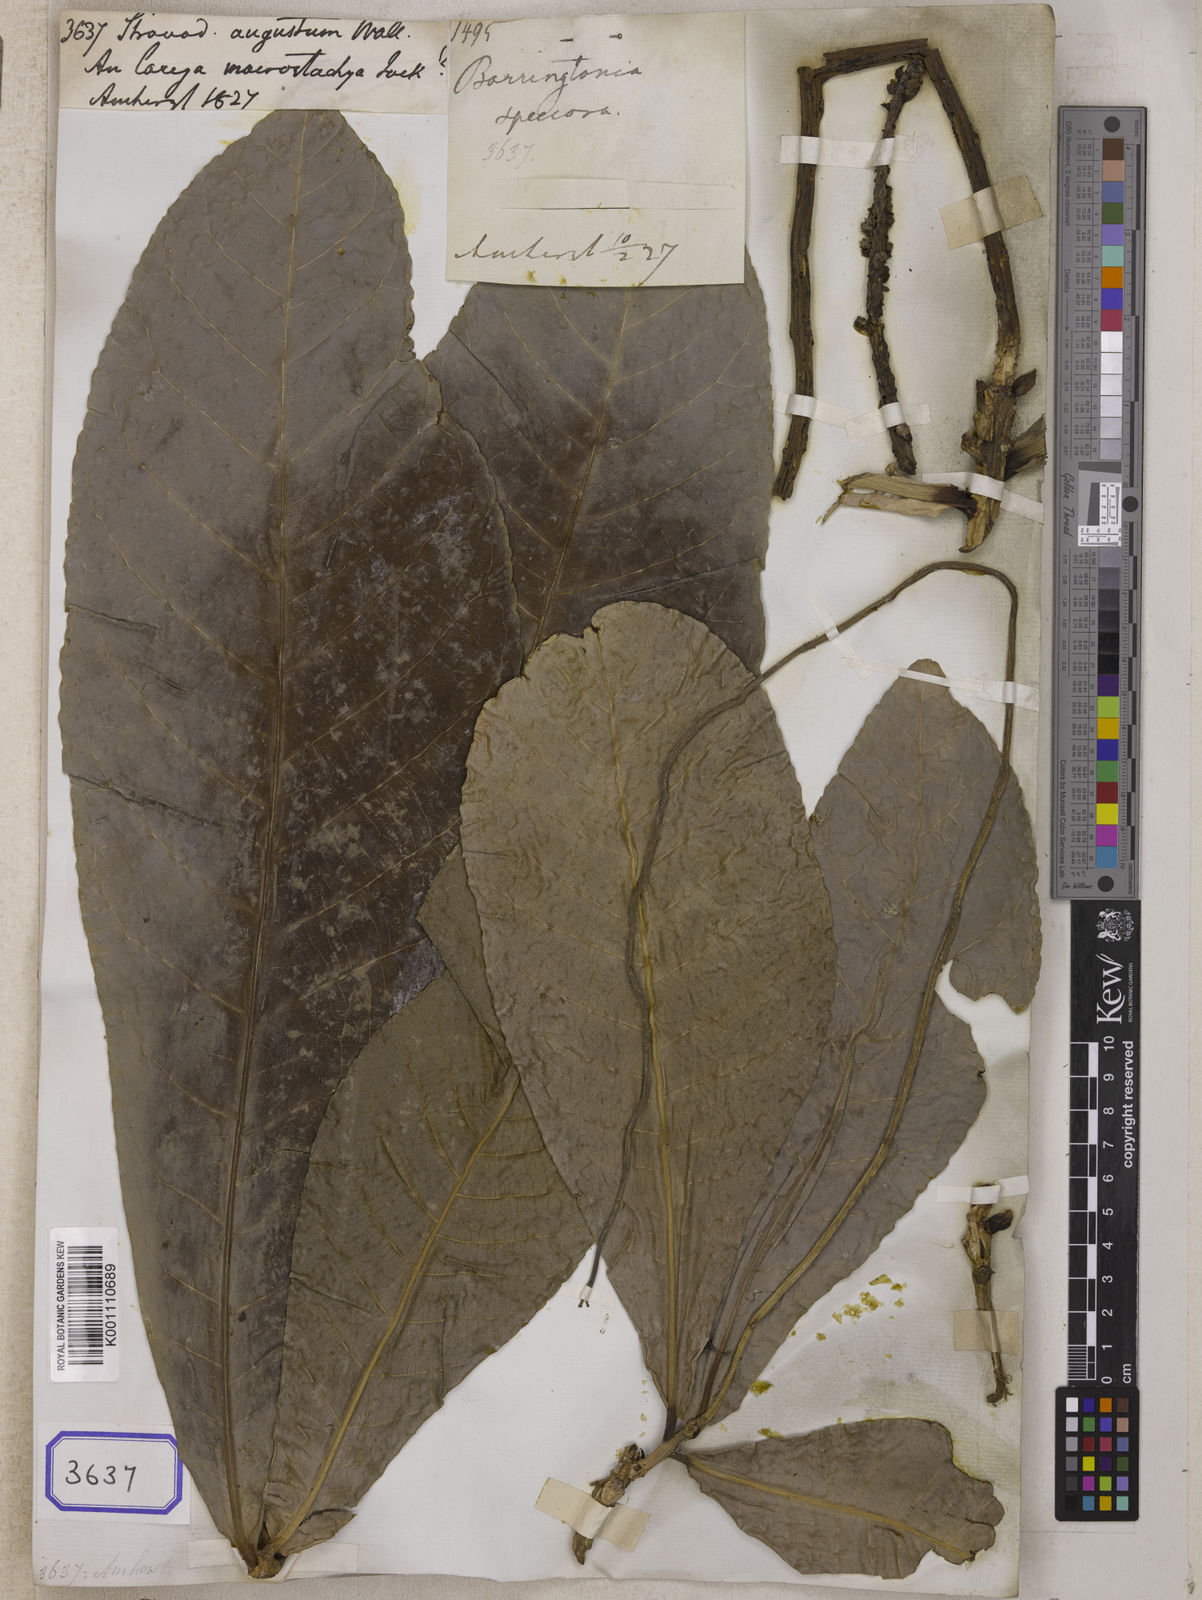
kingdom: Plantae
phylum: Tracheophyta
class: Magnoliopsida
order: Ericales
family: Lecythidaceae
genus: Barringtonia
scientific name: Barringtonia augusta
